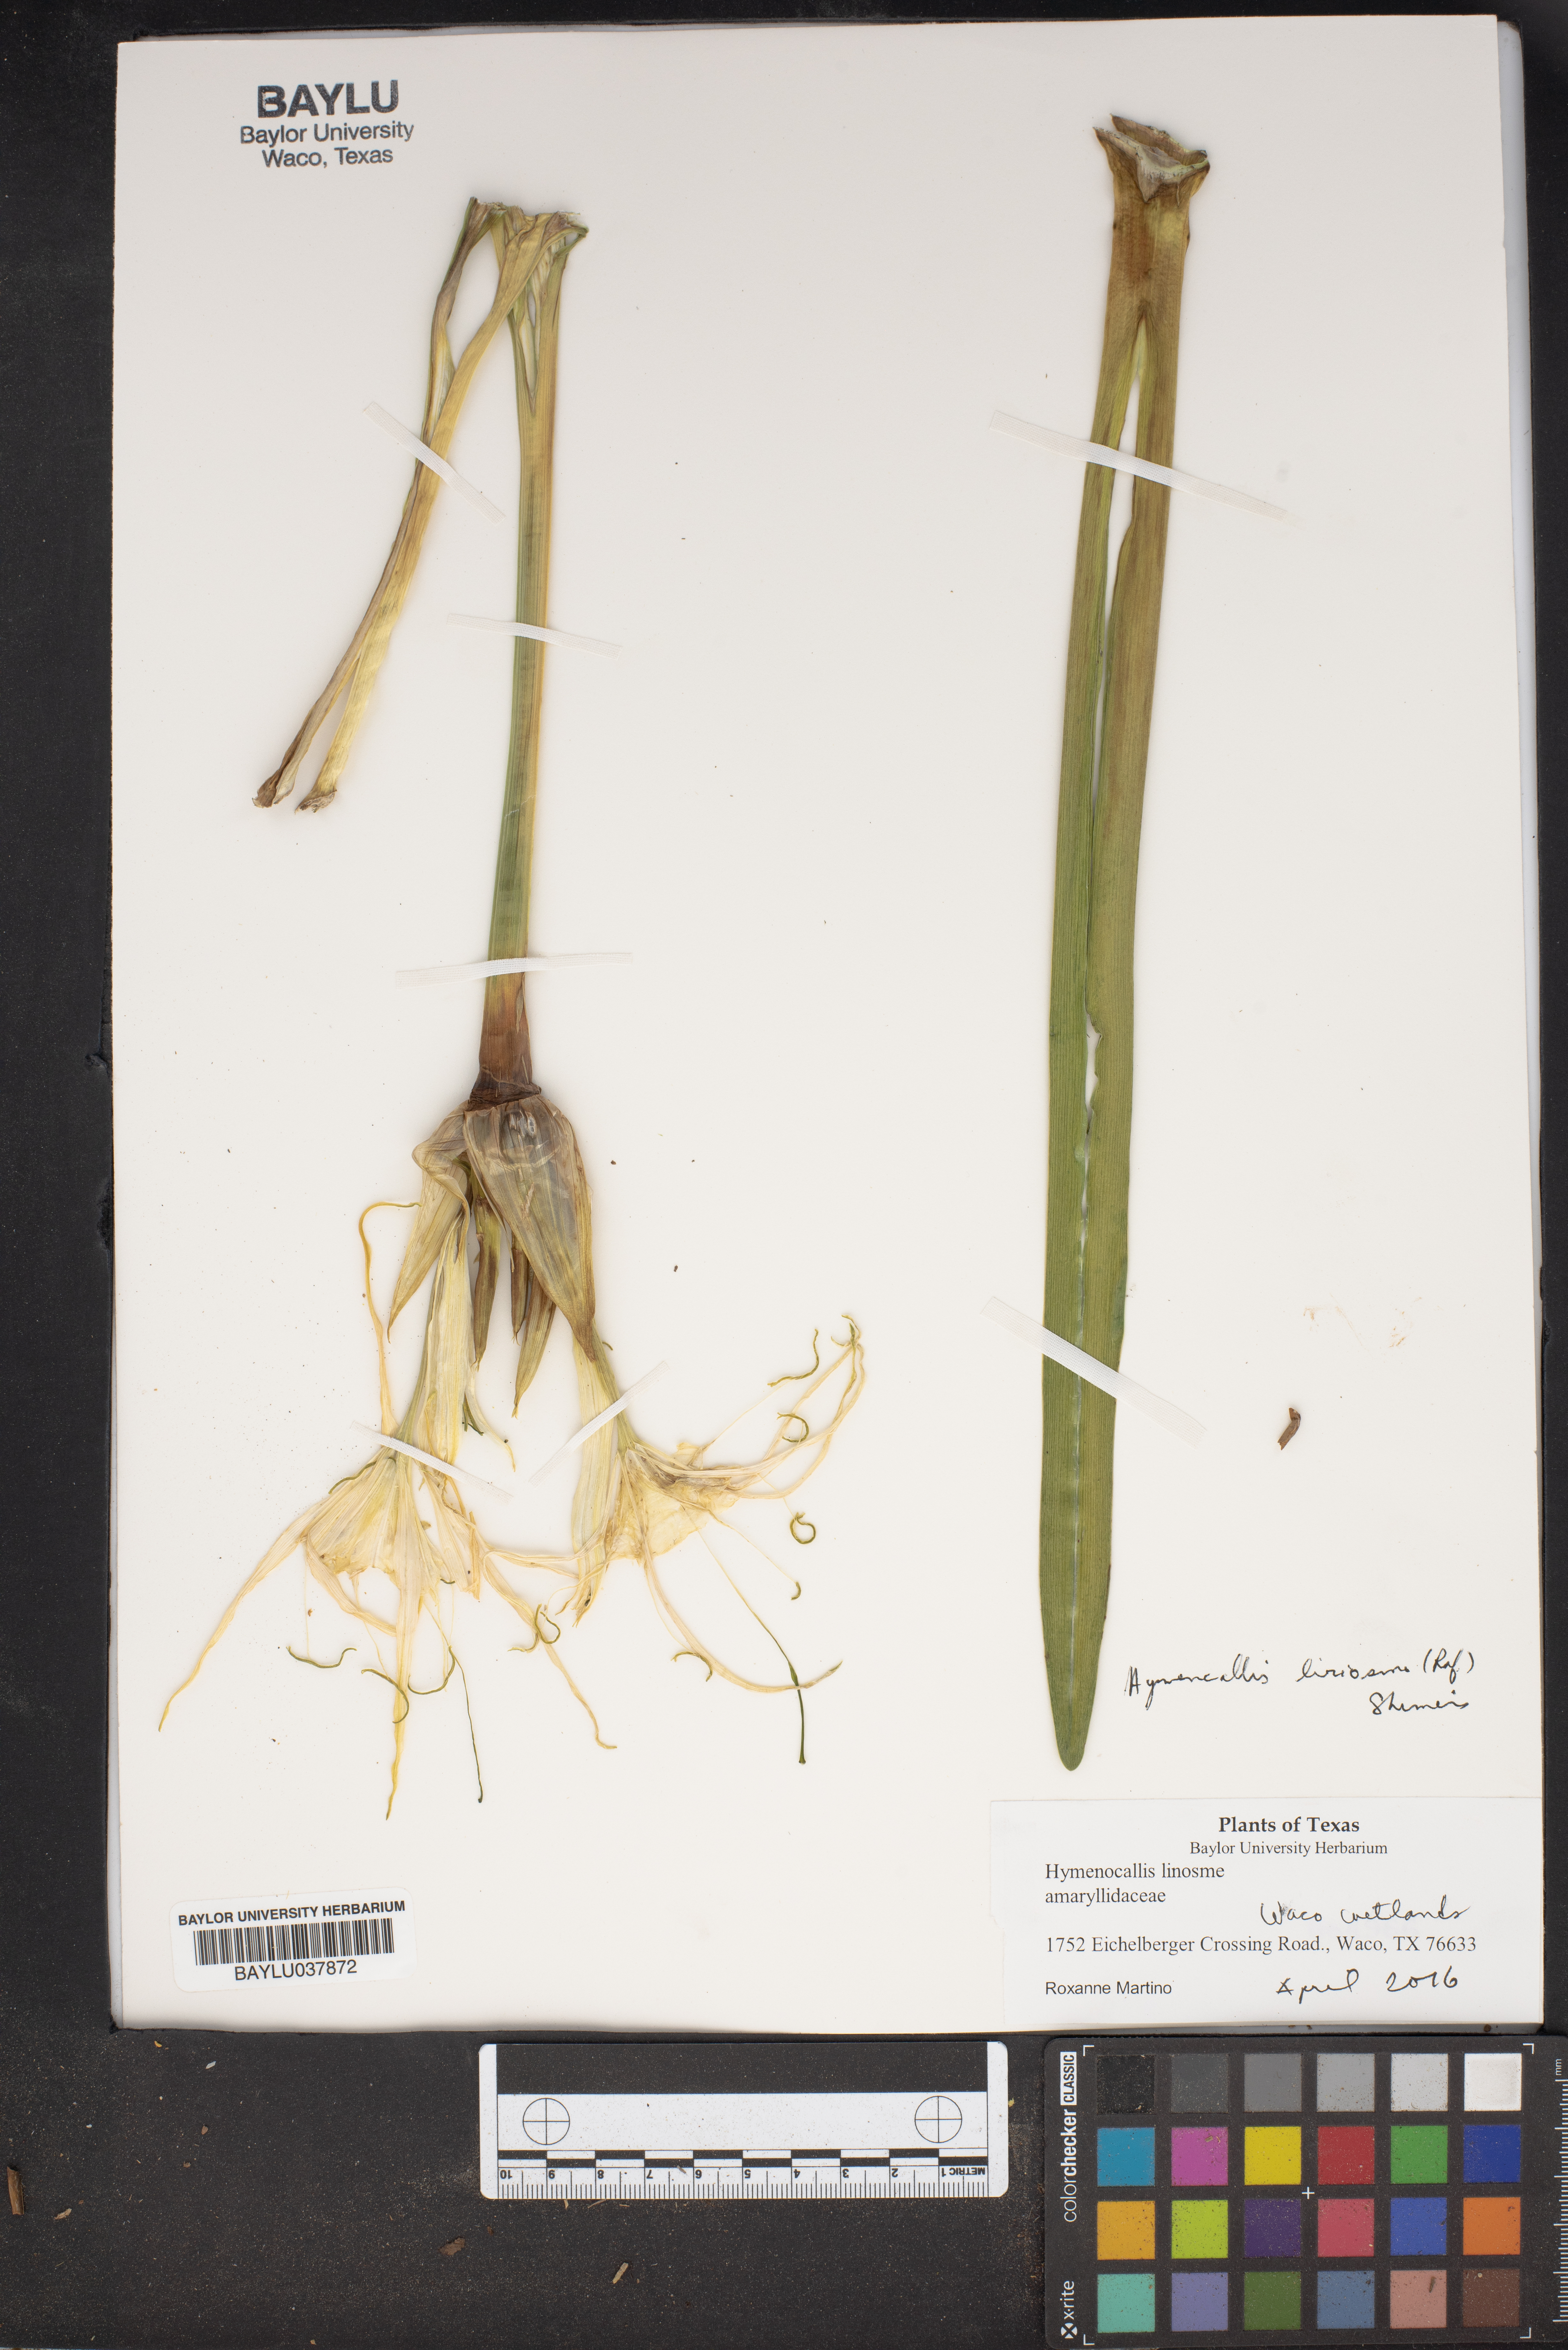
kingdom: Plantae
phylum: Tracheophyta
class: Liliopsida
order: Asparagales
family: Amaryllidaceae
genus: Hymenocallis
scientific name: Hymenocallis
